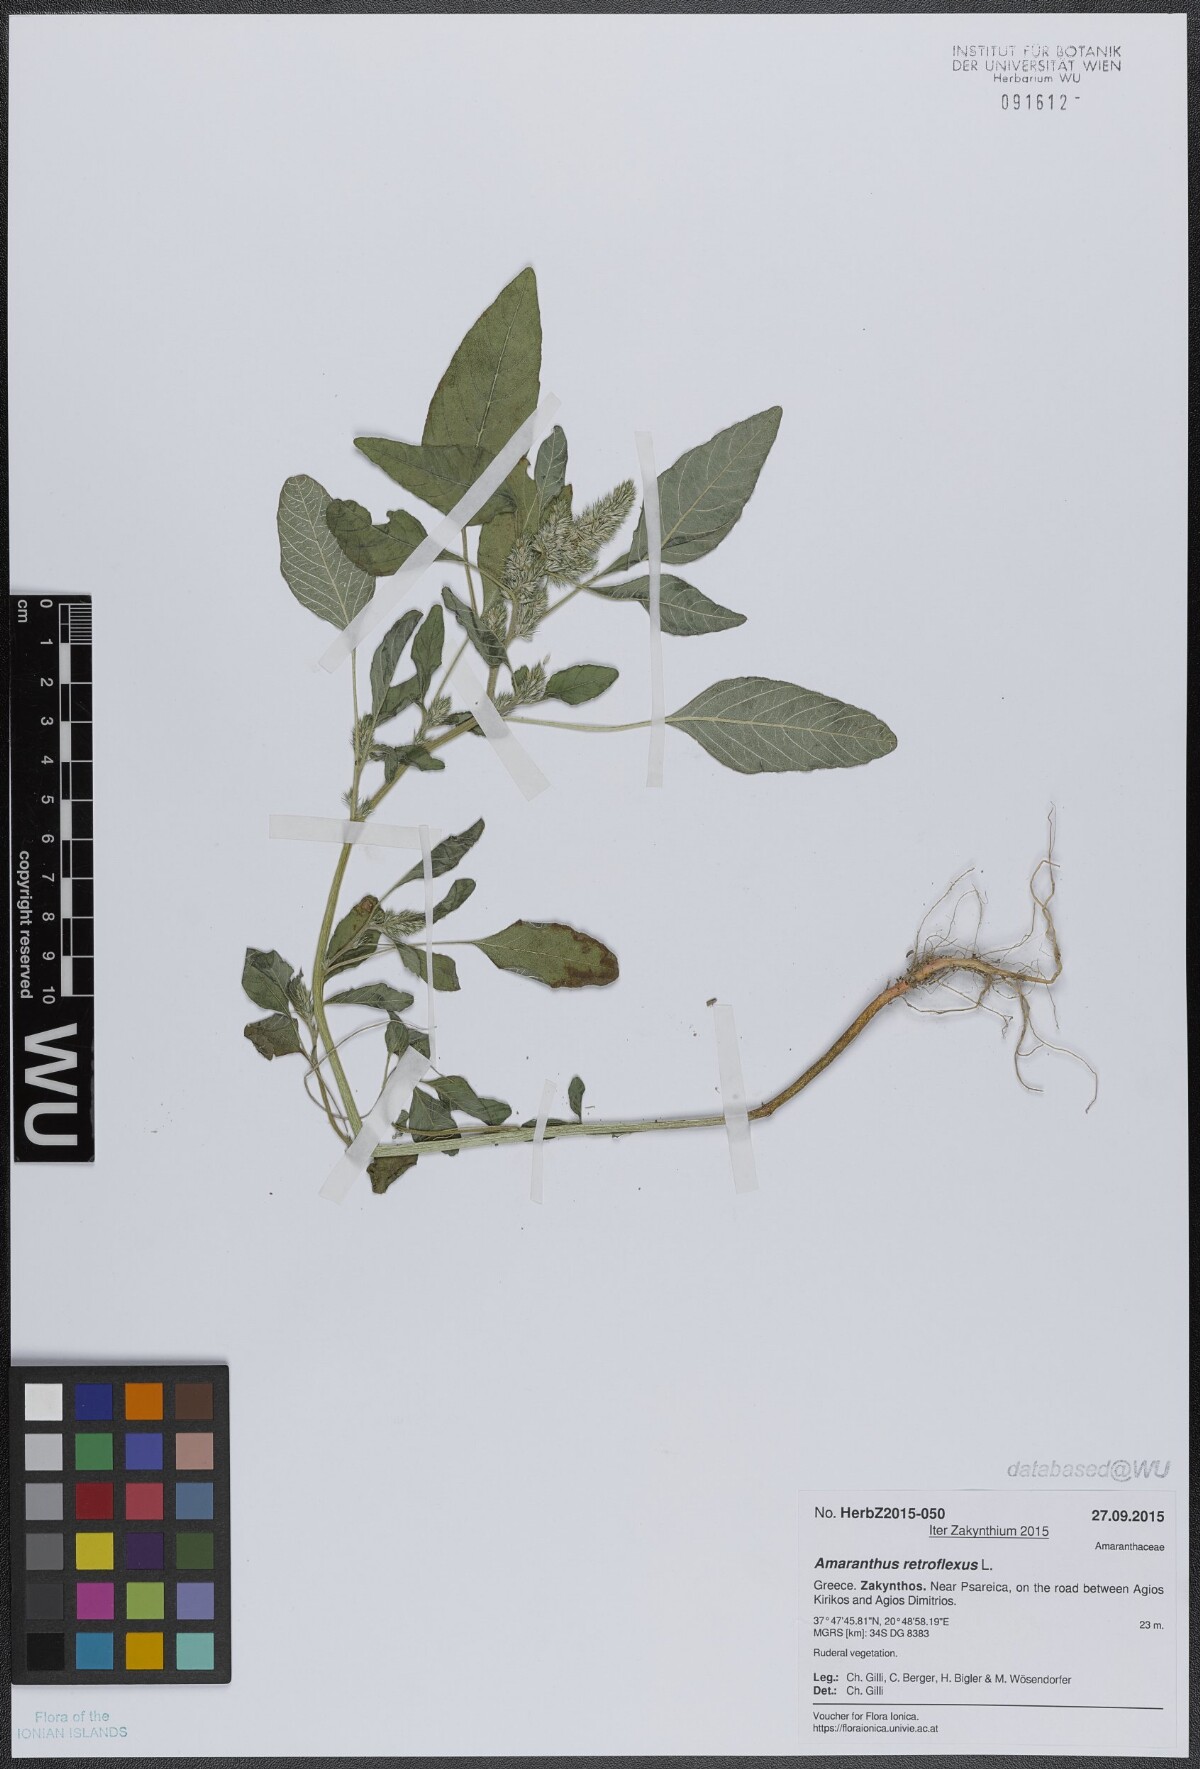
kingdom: Plantae
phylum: Tracheophyta
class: Magnoliopsida
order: Caryophyllales
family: Amaranthaceae
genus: Amaranthus
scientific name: Amaranthus retroflexus
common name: Redroot amaranth
